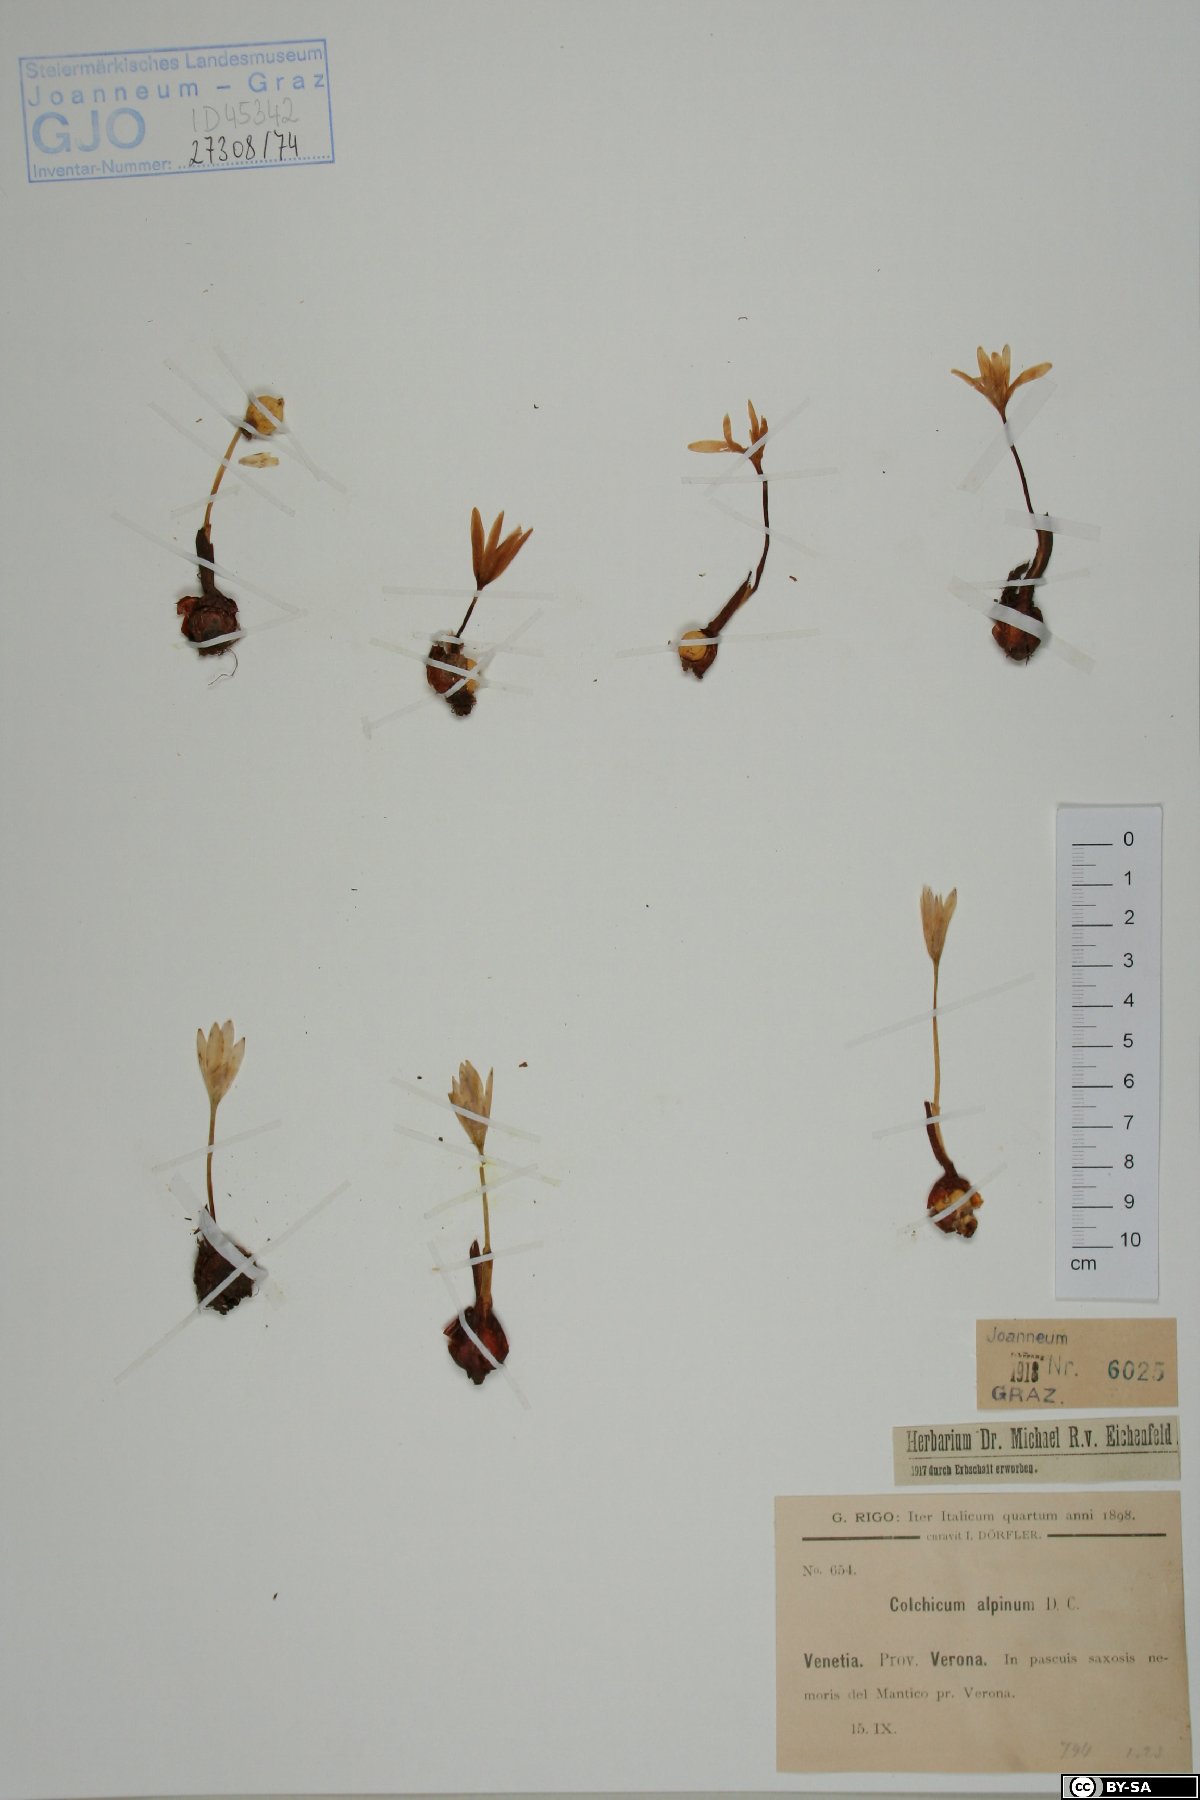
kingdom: Plantae
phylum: Tracheophyta
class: Liliopsida
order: Liliales
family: Colchicaceae
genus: Colchicum
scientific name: Colchicum alpinum
